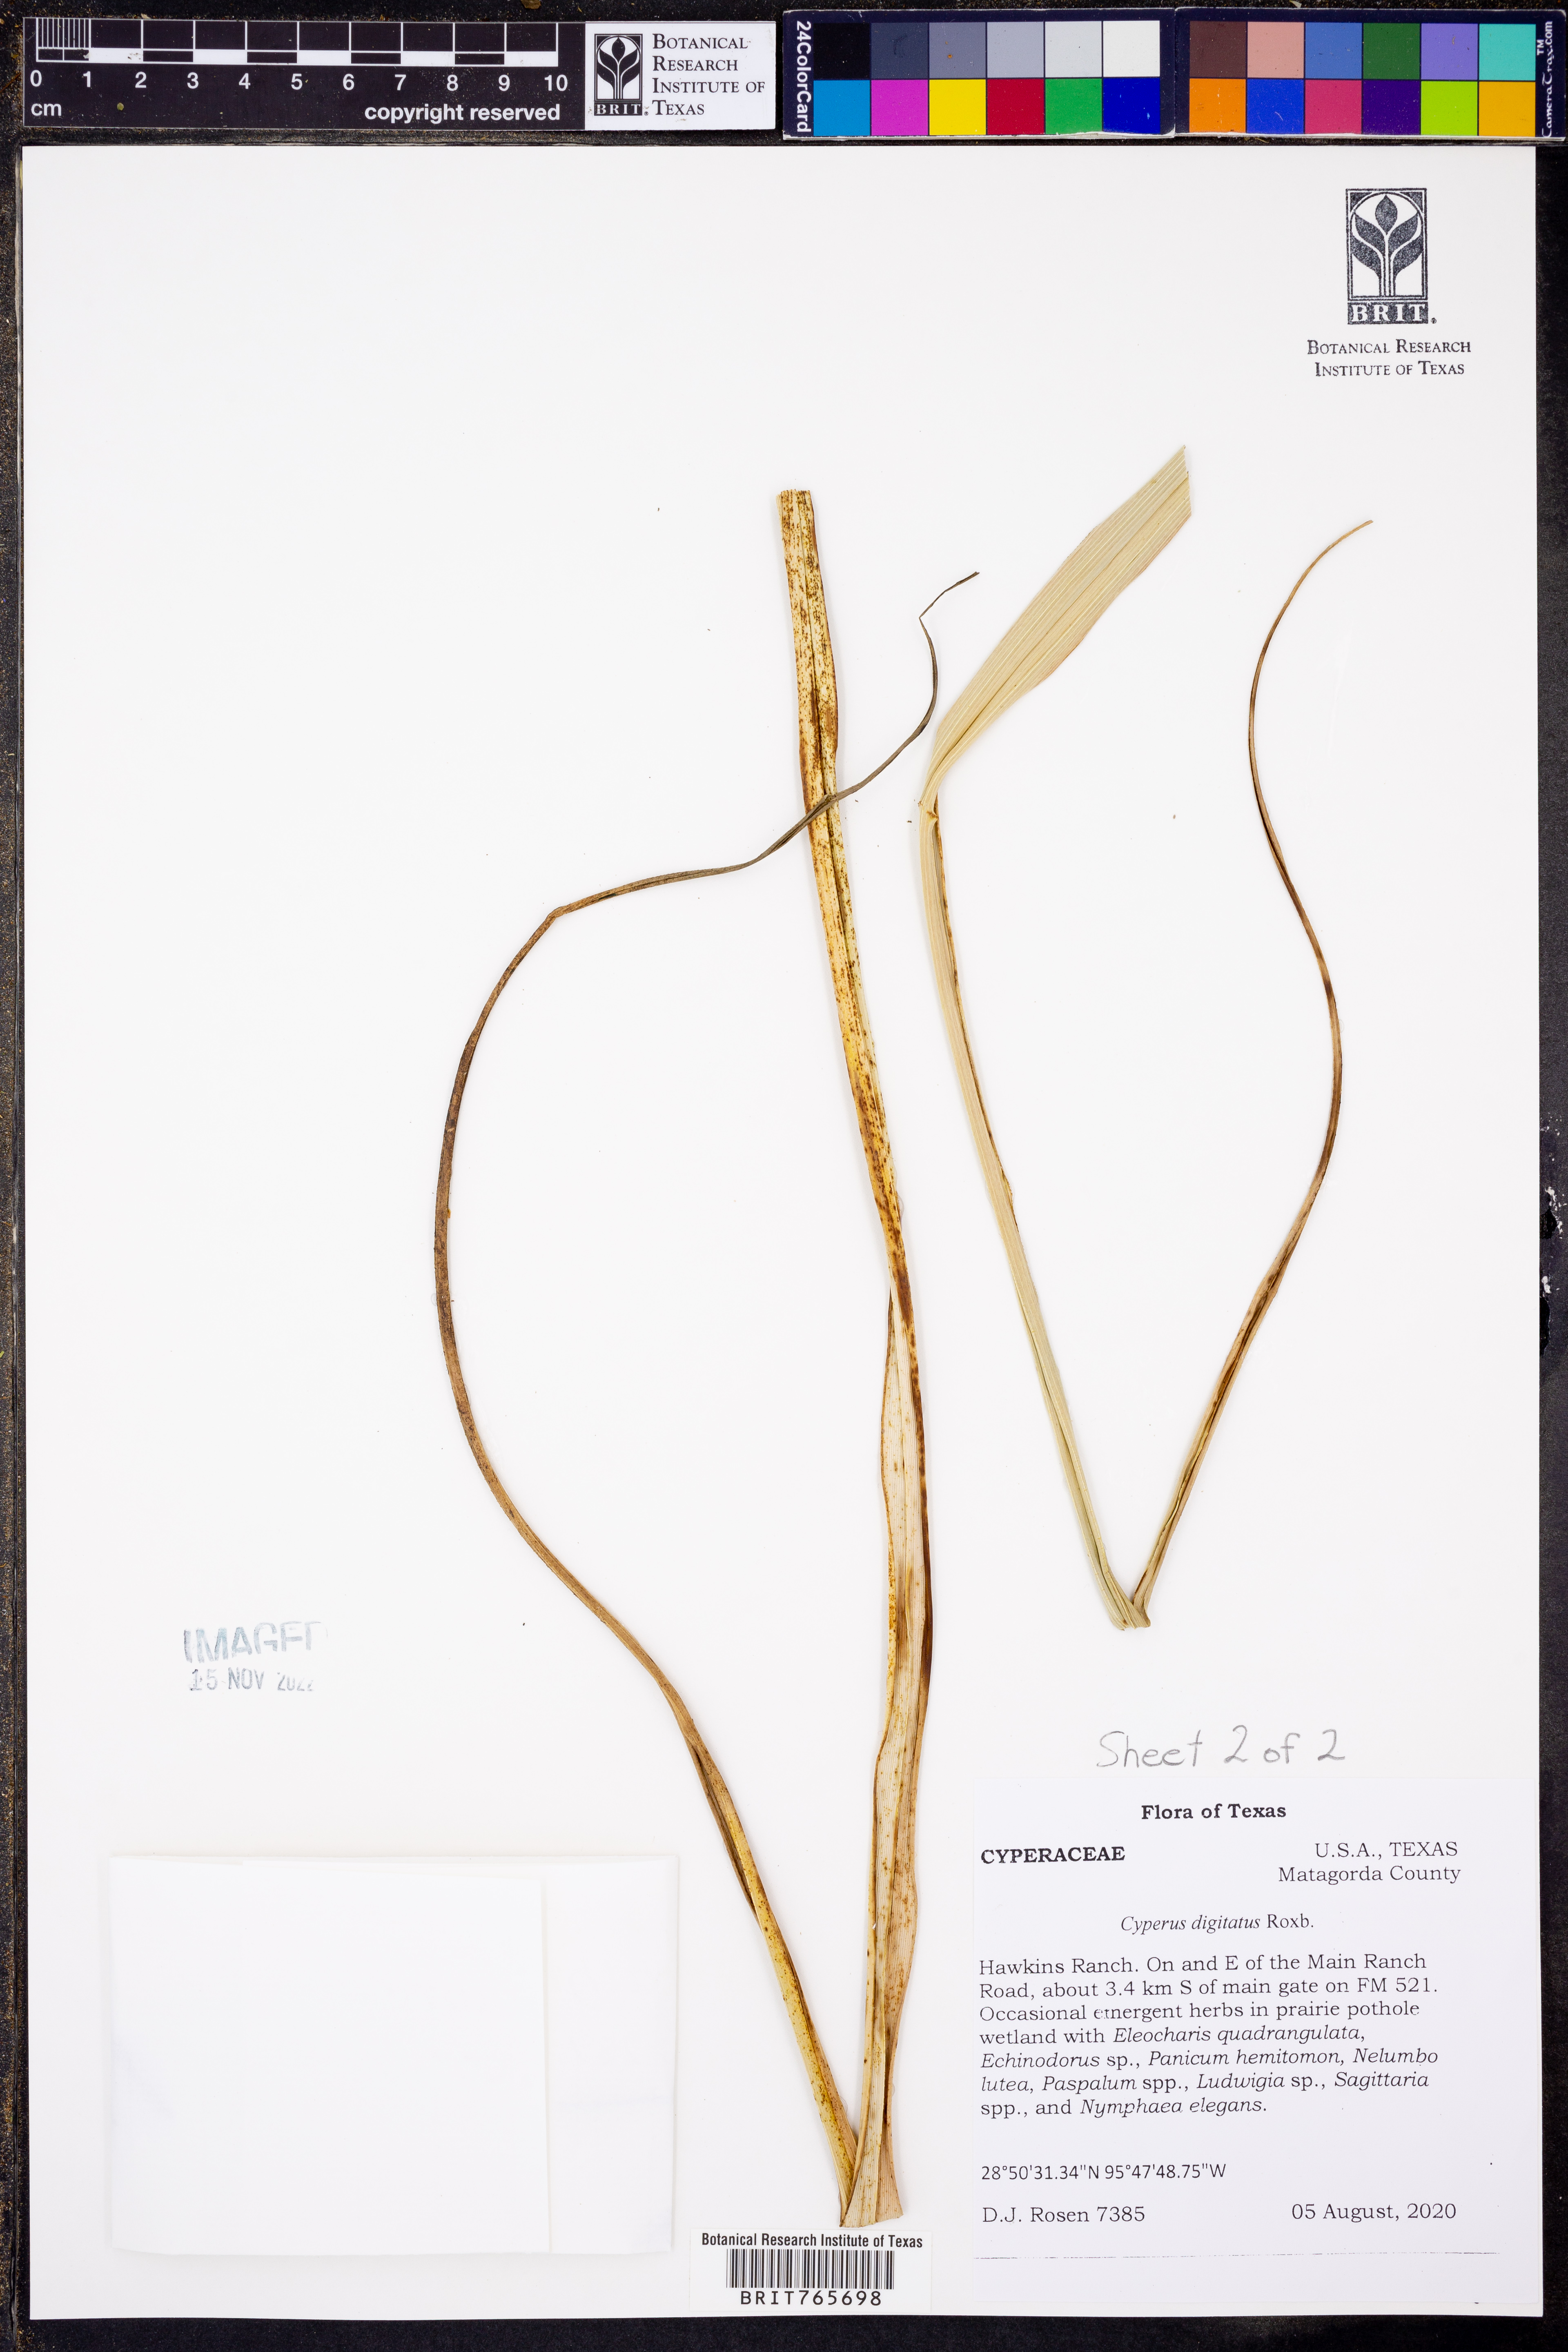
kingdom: Plantae
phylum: Tracheophyta
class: Liliopsida
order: Poales
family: Cyperaceae
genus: Cyperus
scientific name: Cyperus digitatus
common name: Finger flatsedge
